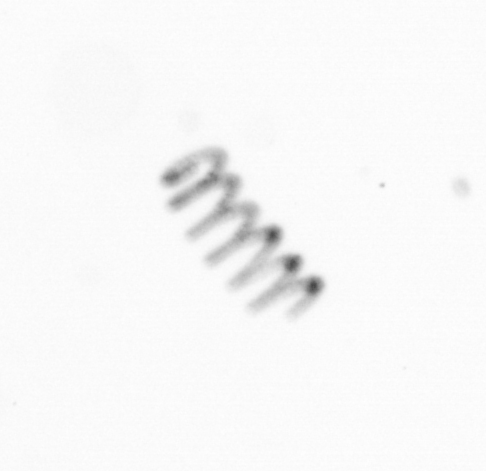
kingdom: Chromista
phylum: Ochrophyta
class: Bacillariophyceae
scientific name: Bacillariophyceae
